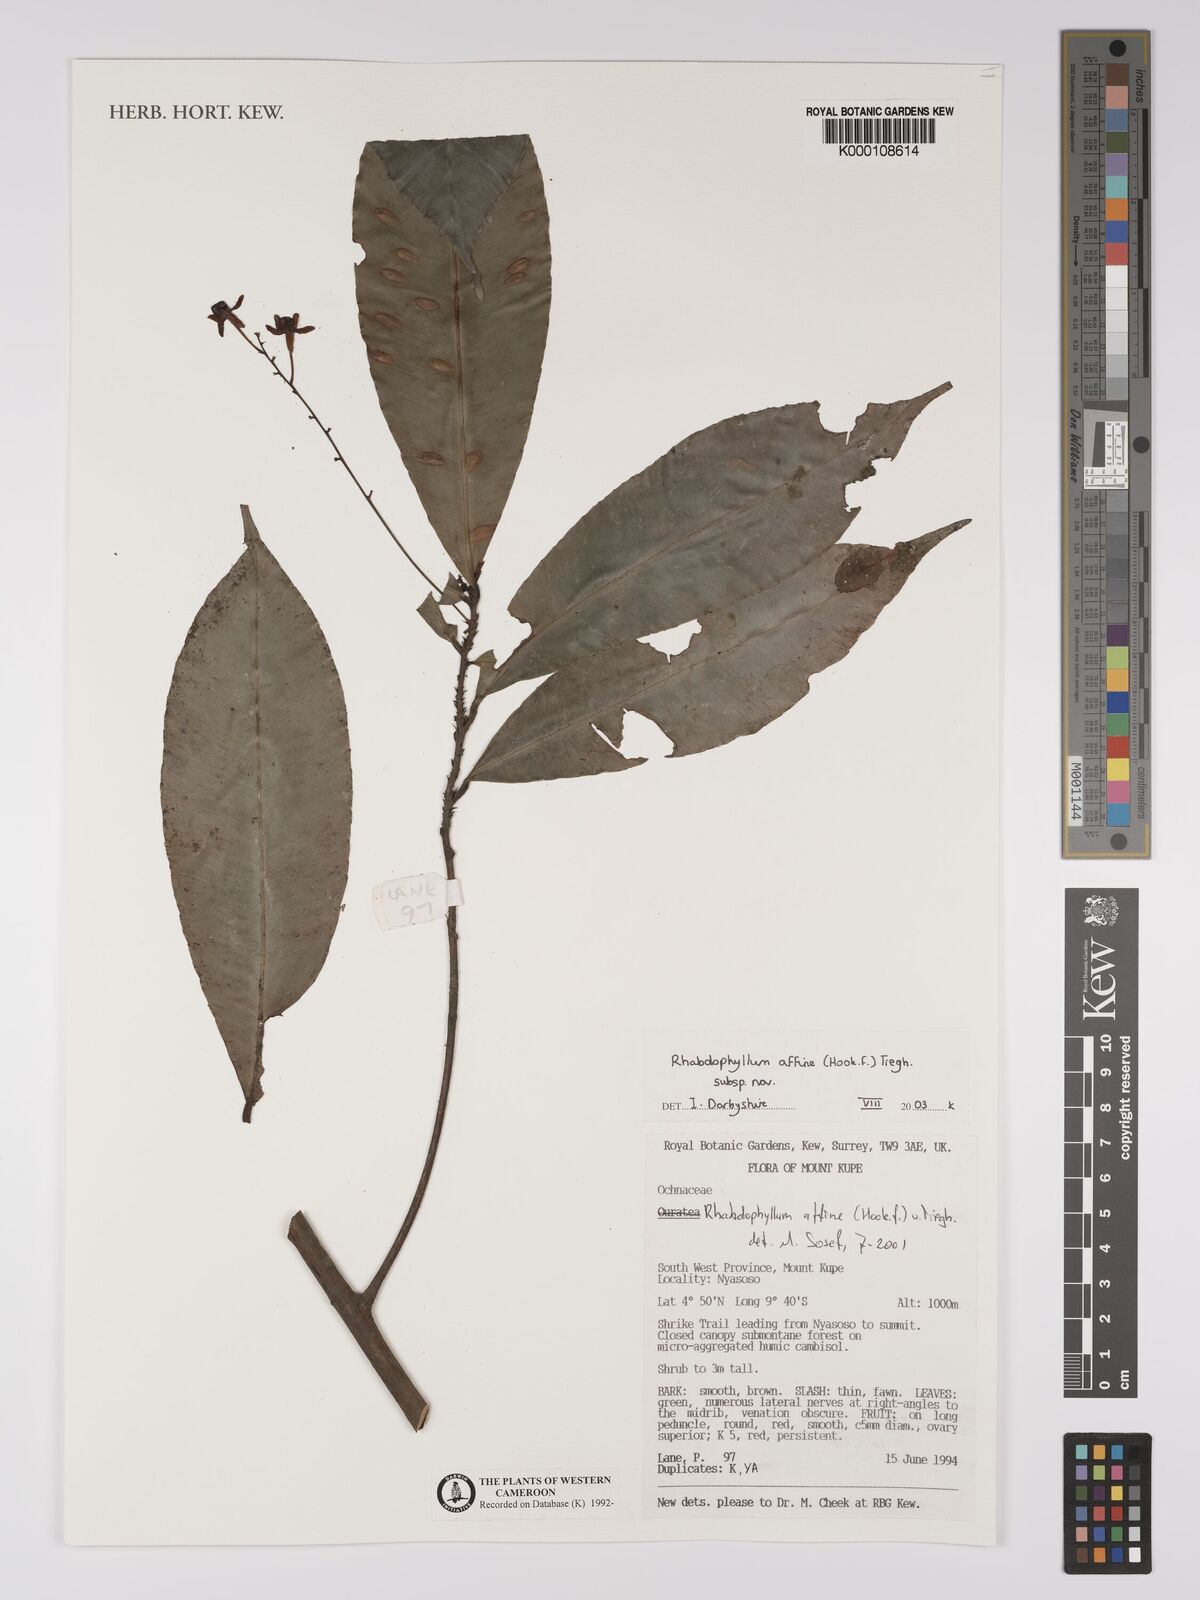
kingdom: Plantae
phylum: Tracheophyta
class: Magnoliopsida
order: Malpighiales
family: Ochnaceae
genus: Rhabdophyllum
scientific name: Rhabdophyllum affine
